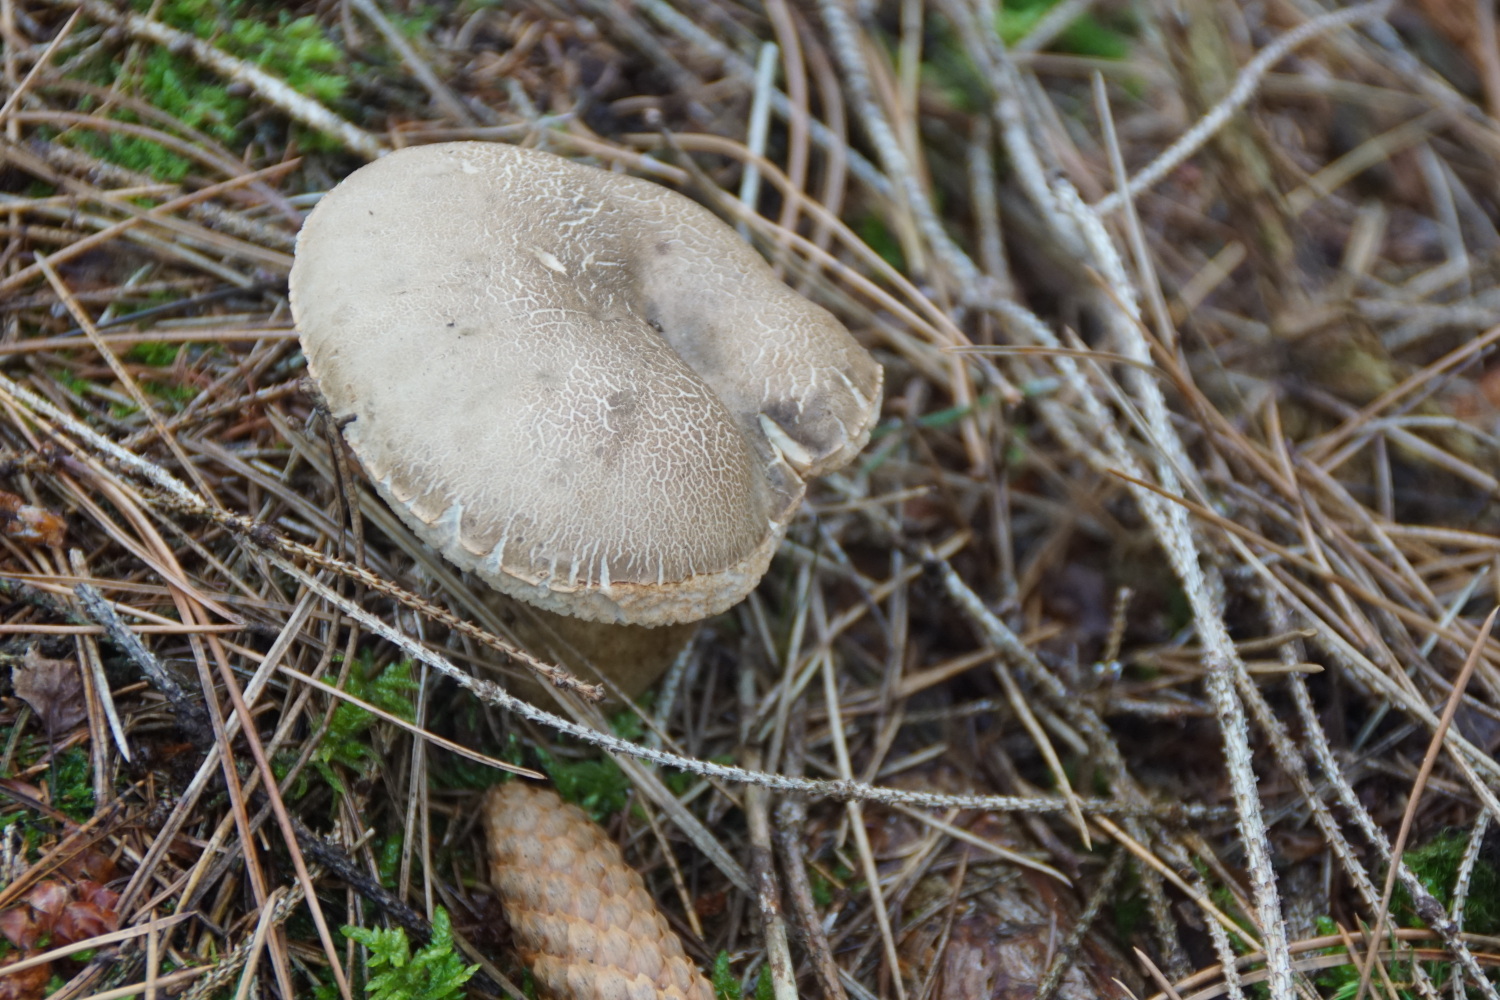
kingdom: Fungi
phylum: Basidiomycota
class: Agaricomycetes
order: Boletales
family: Boletaceae
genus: Tylopilus
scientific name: Tylopilus felleus
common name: galderørhat
